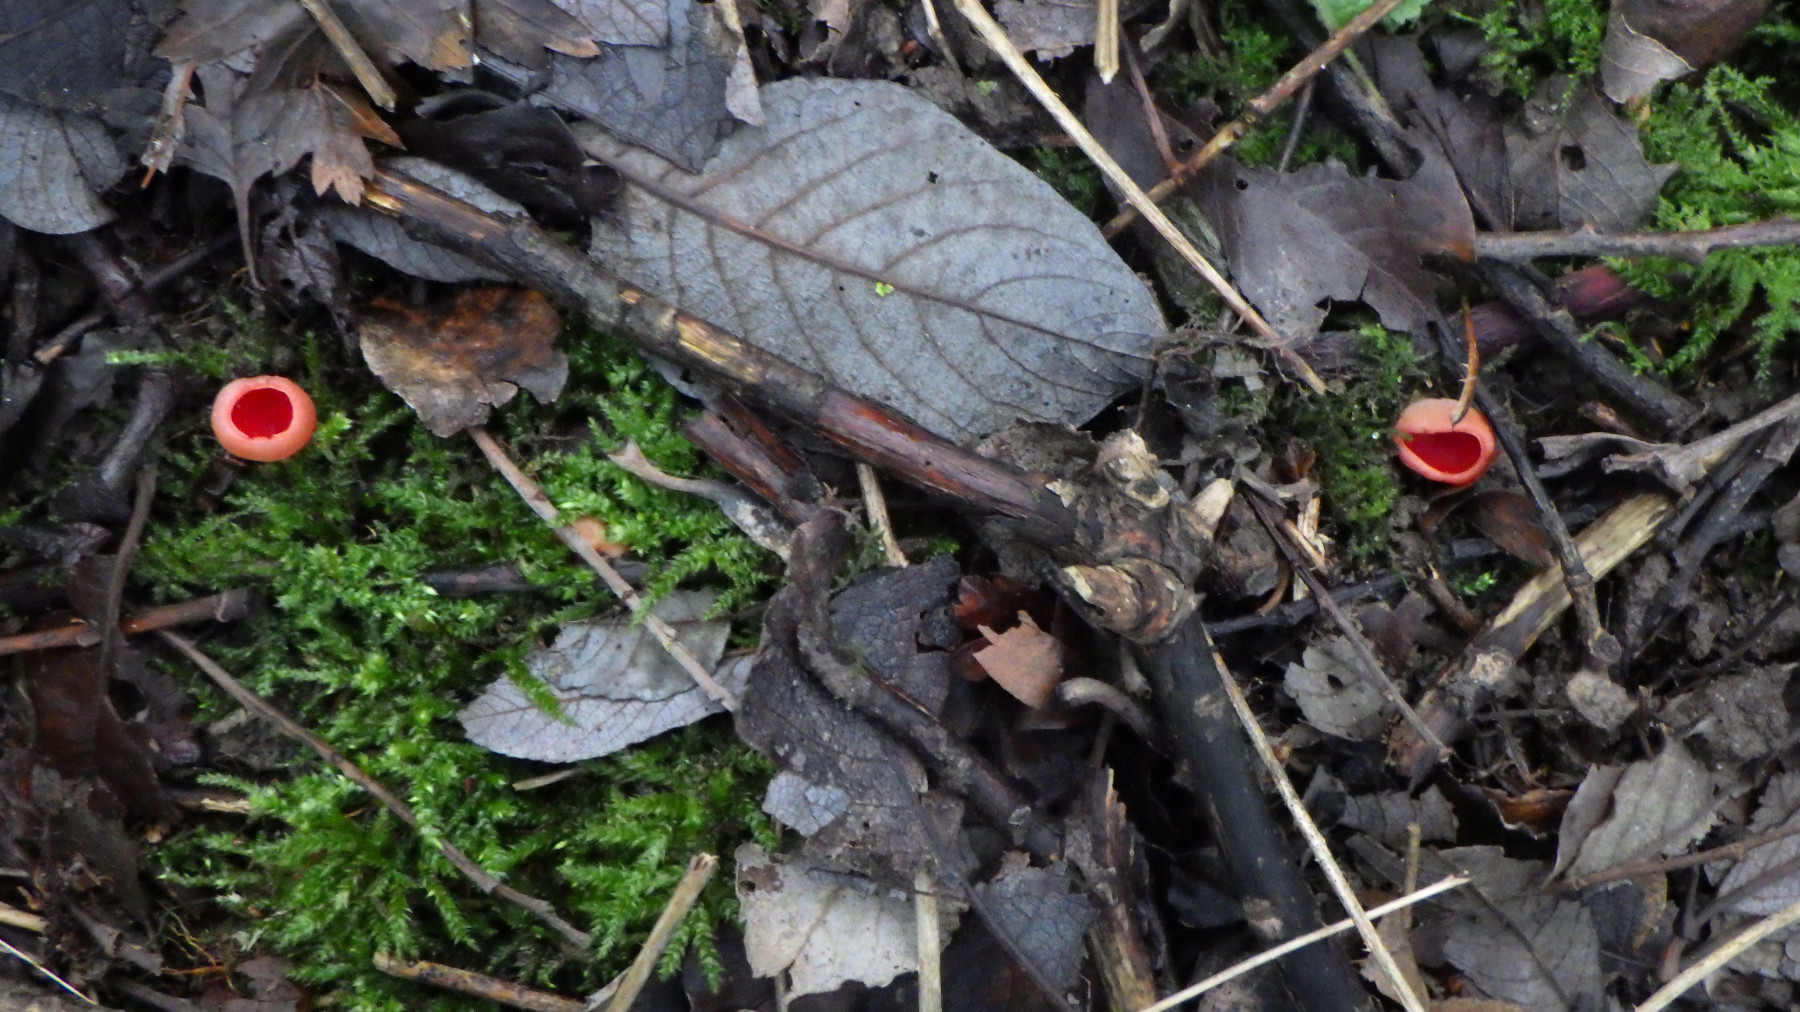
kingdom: Fungi
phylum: Ascomycota
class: Pezizomycetes
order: Pezizales
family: Sarcoscyphaceae
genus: Sarcoscypha
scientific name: Sarcoscypha austriaca
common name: krølhåret pragtbæger
